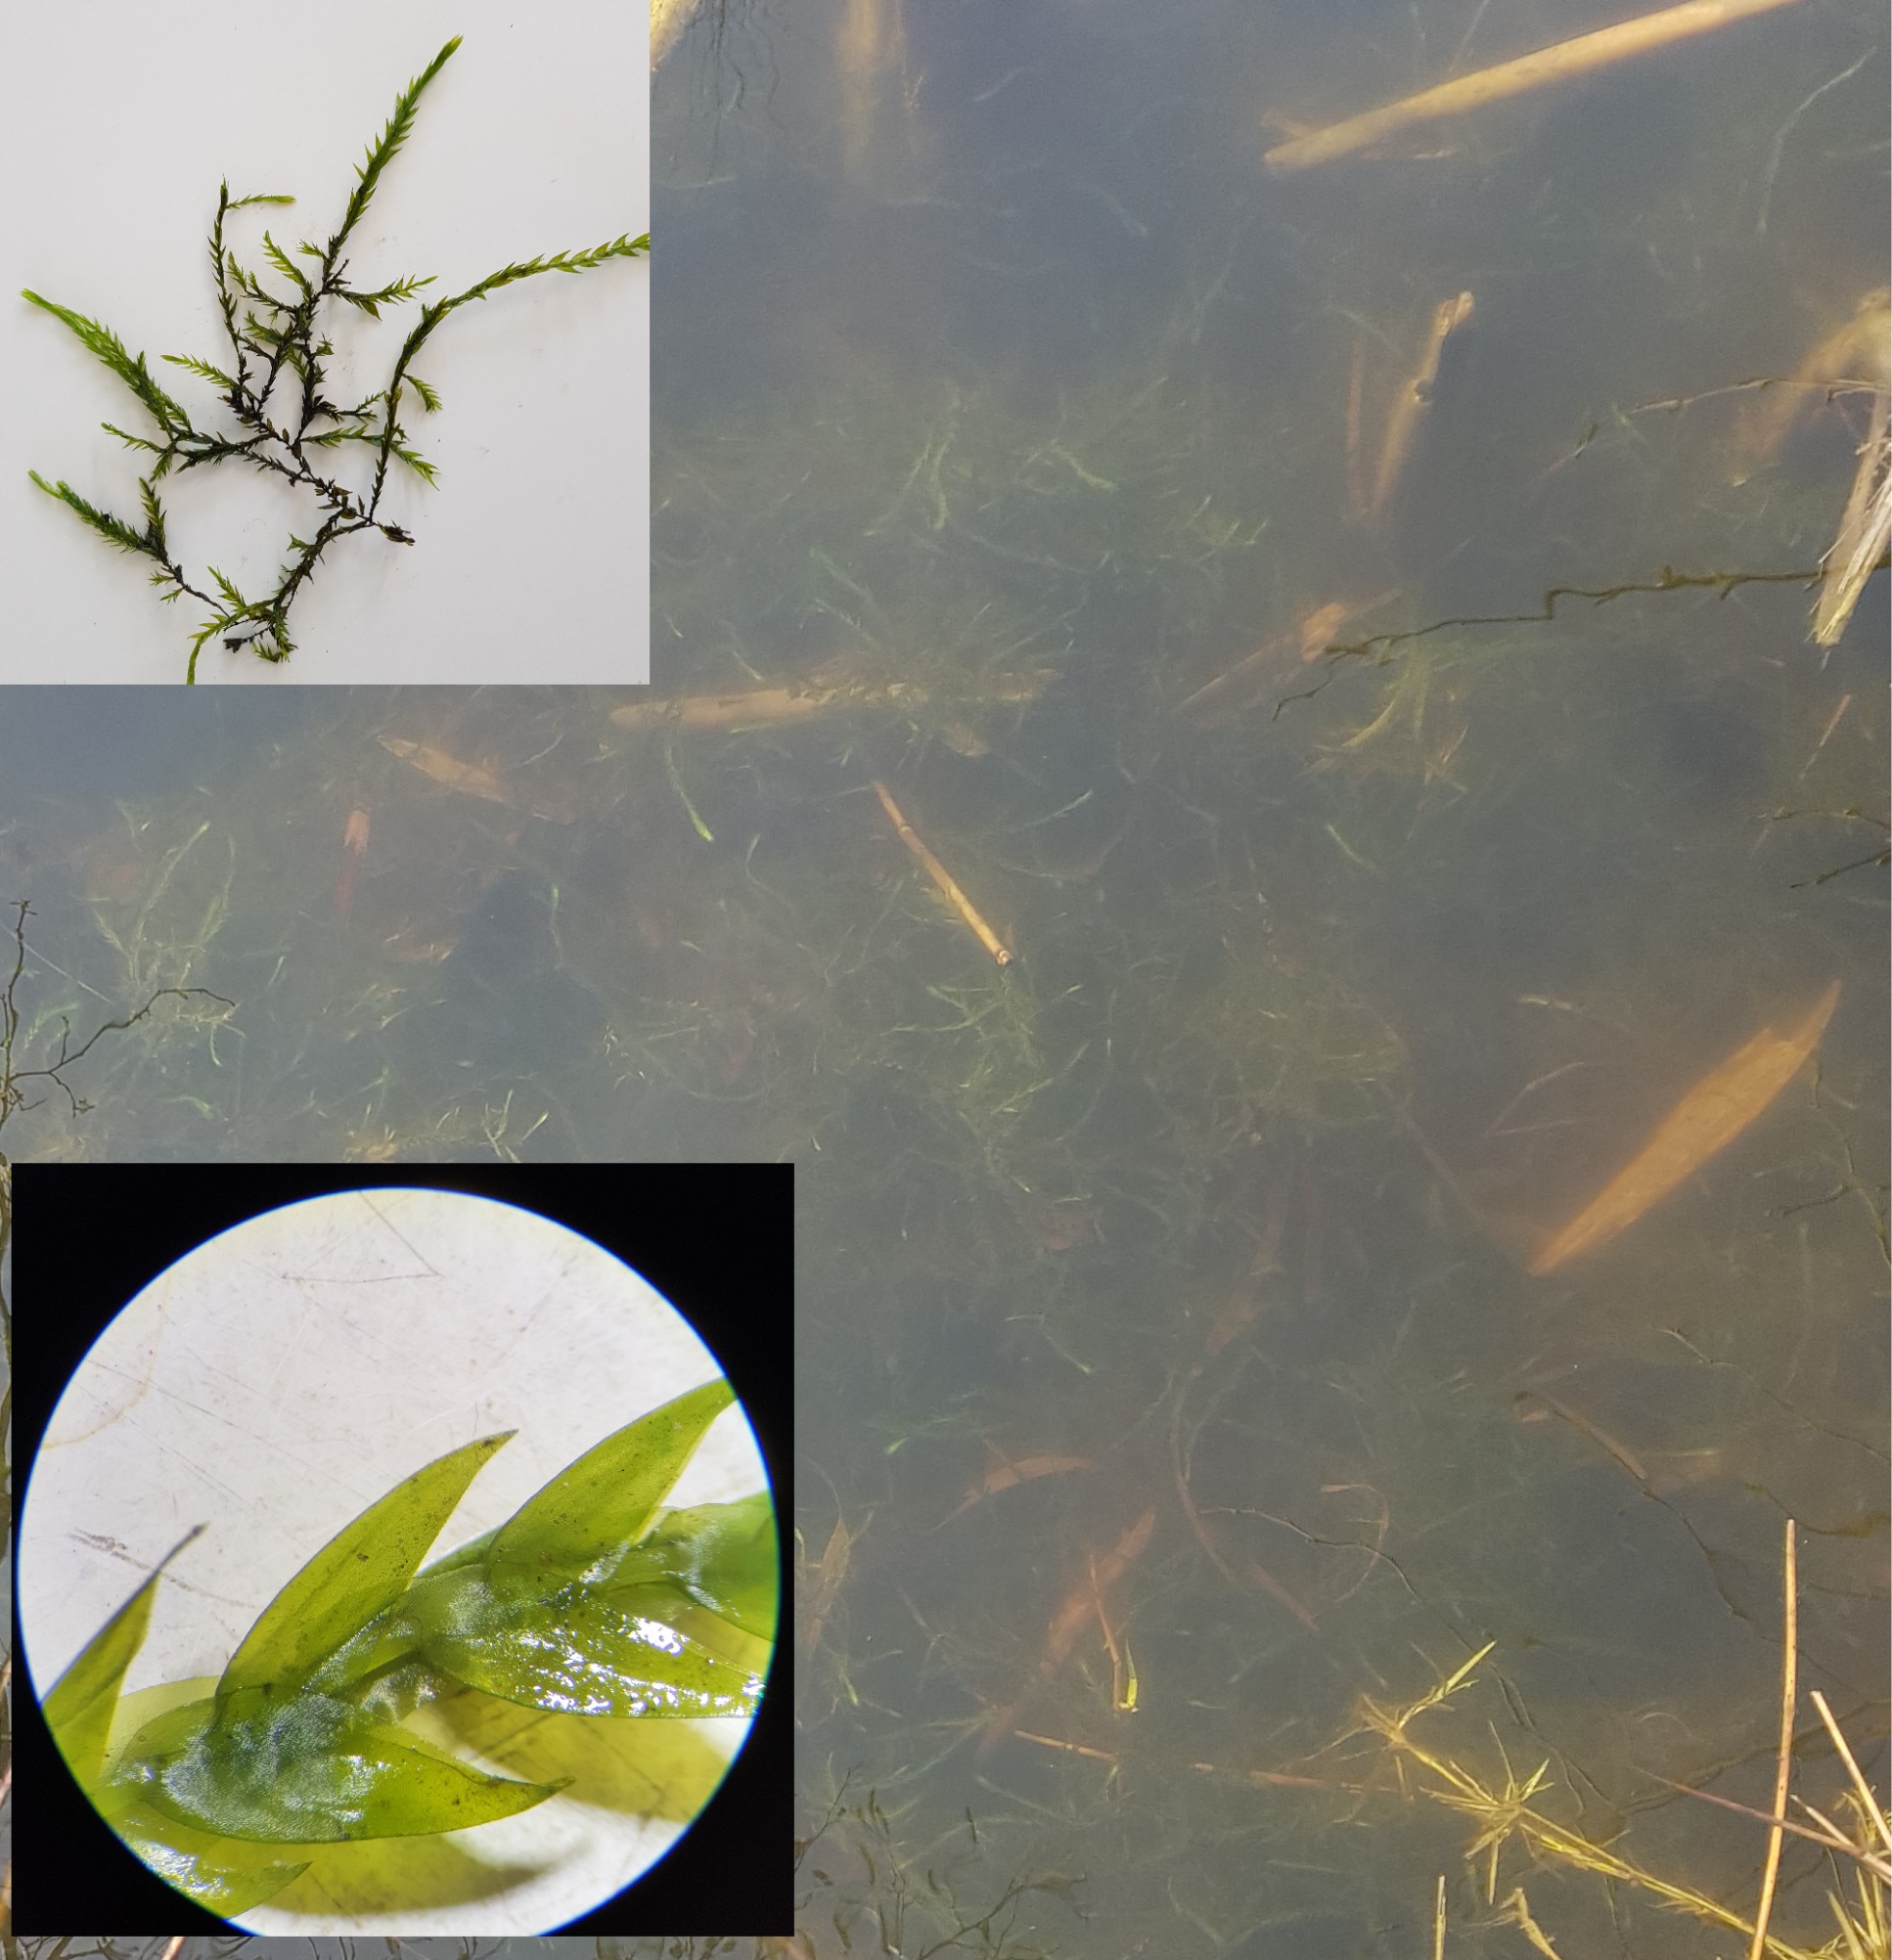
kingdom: Plantae
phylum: Bryophyta
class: Bryopsida
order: Hypnales
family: Fontinalaceae
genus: Fontinalis
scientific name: Fontinalis antipyretica
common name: Stor kildemos
